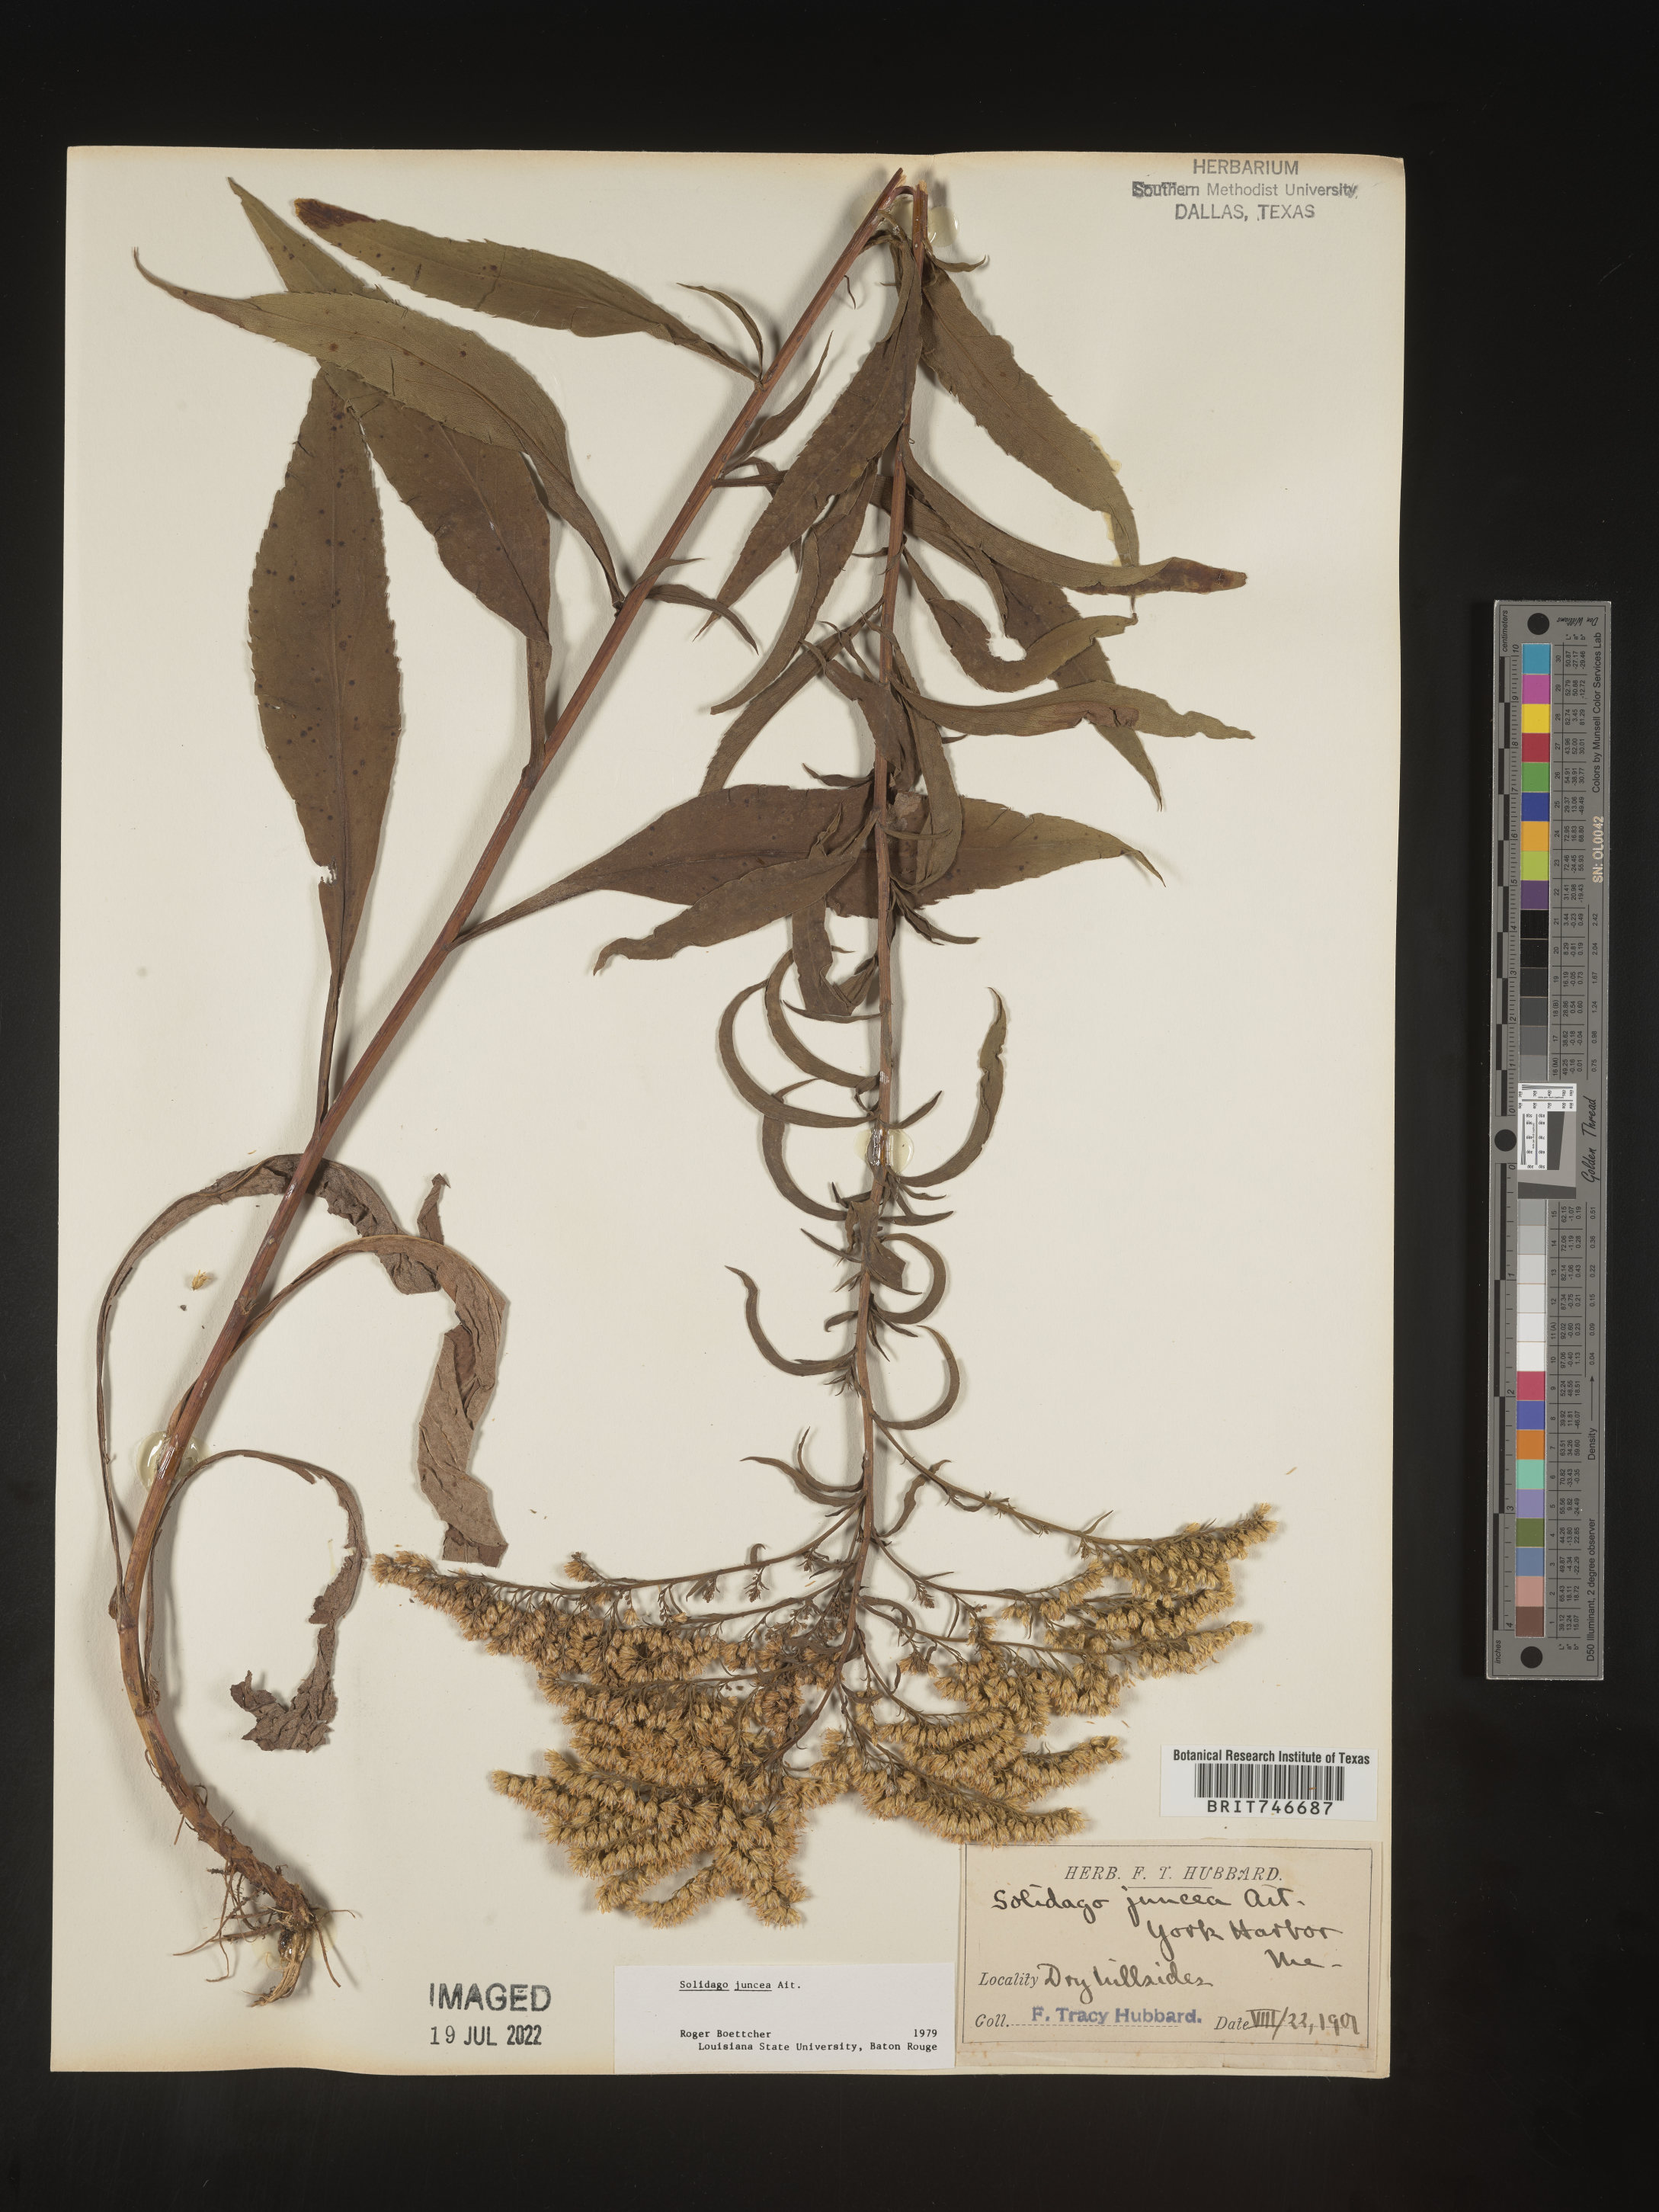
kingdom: Plantae
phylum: Tracheophyta
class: Magnoliopsida
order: Asterales
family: Asteraceae
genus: Solidago
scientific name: Solidago juncea
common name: Early goldenrod
